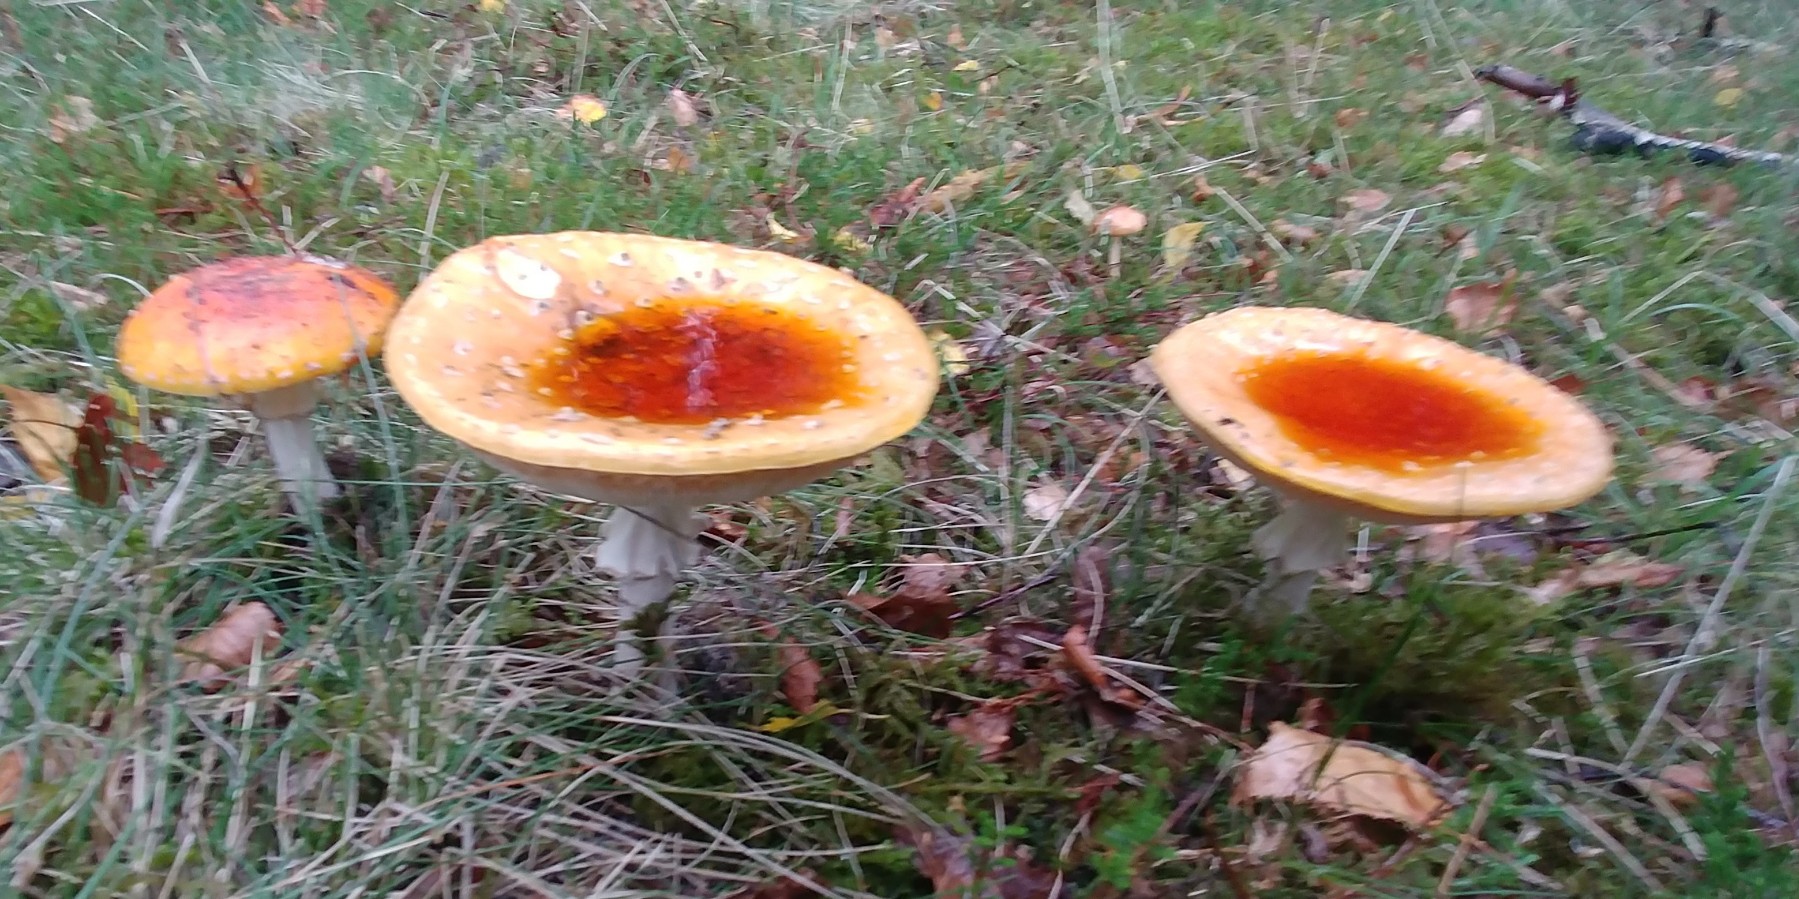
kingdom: Fungi
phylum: Basidiomycota
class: Agaricomycetes
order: Agaricales
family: Amanitaceae
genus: Amanita
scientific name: Amanita muscaria
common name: rød fluesvamp
